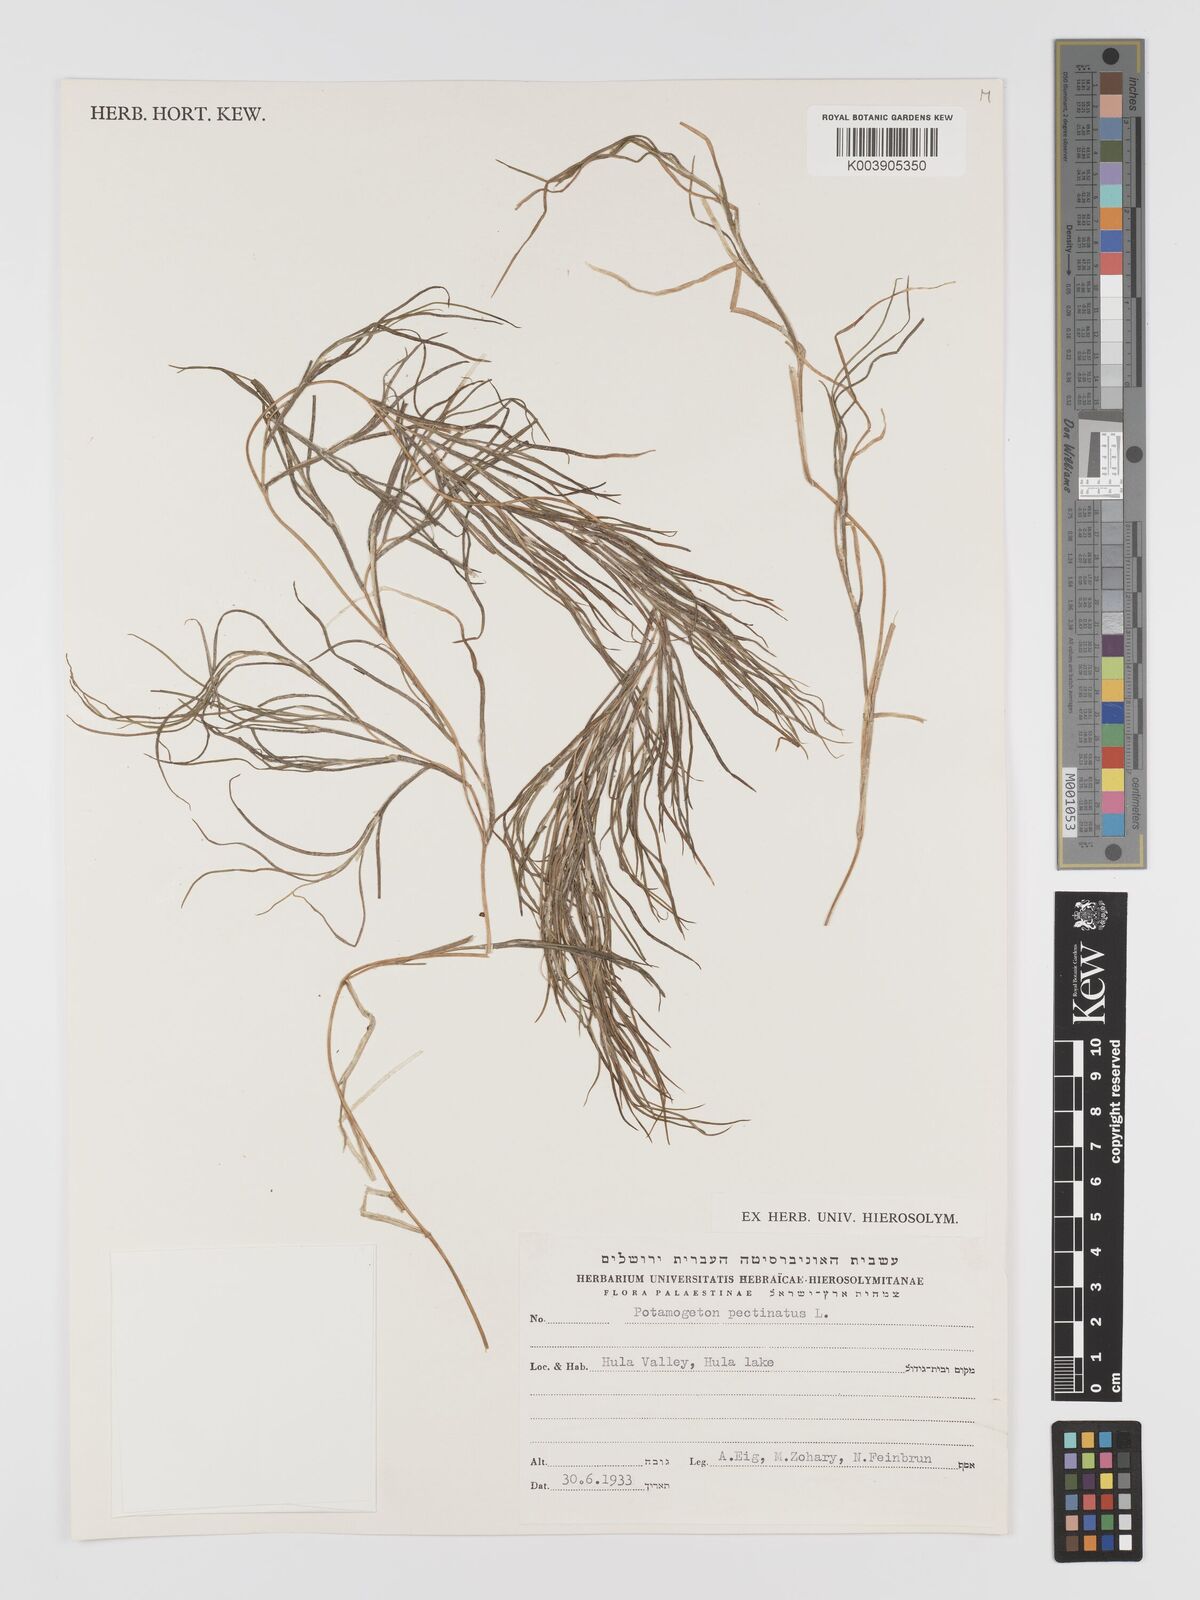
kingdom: Plantae
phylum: Tracheophyta
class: Liliopsida
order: Alismatales
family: Potamogetonaceae
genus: Stuckenia
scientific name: Stuckenia pectinata
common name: Sago pondweed
